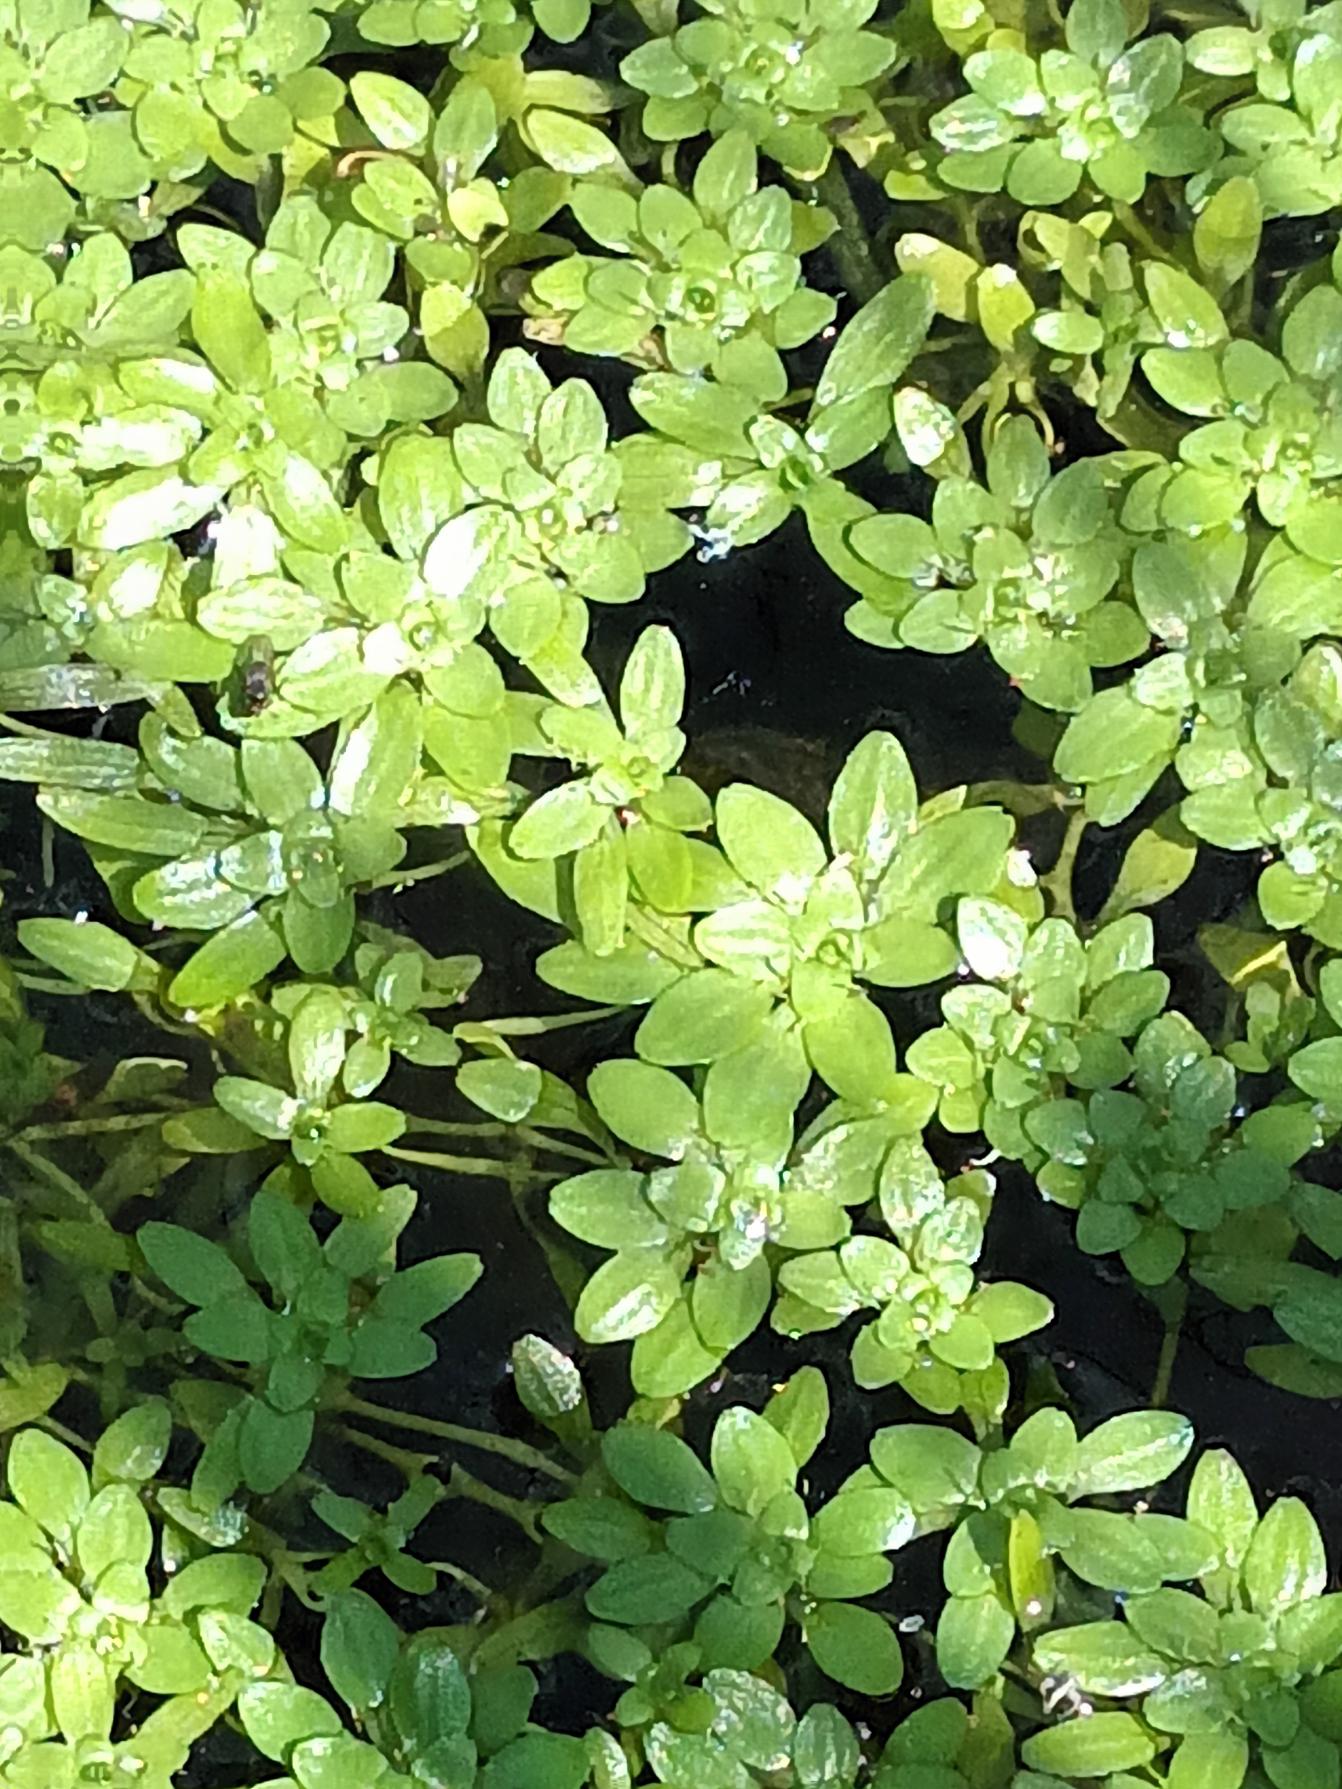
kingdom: Plantae
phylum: Tracheophyta
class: Magnoliopsida
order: Lamiales
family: Plantaginaceae
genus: Callitriche
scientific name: Callitriche
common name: Vandstjerneslægten
